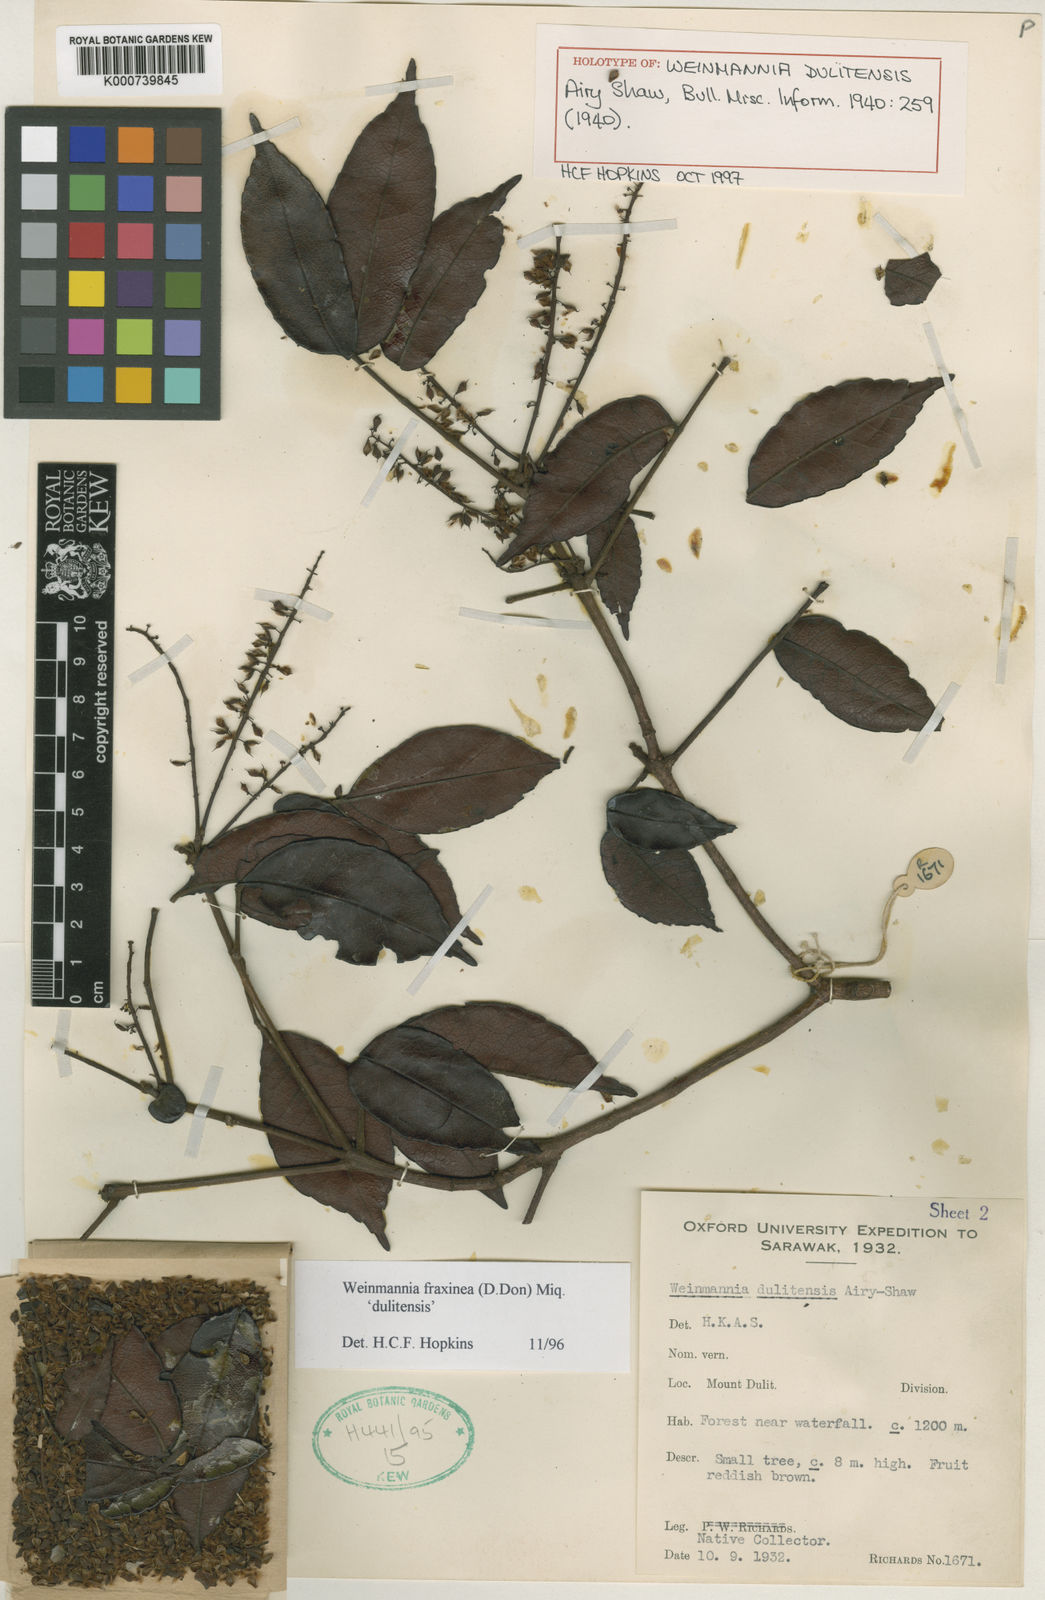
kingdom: Plantae
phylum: Tracheophyta
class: Magnoliopsida
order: Oxalidales
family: Cunoniaceae
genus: Pterophylla
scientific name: Pterophylla fraxinea
